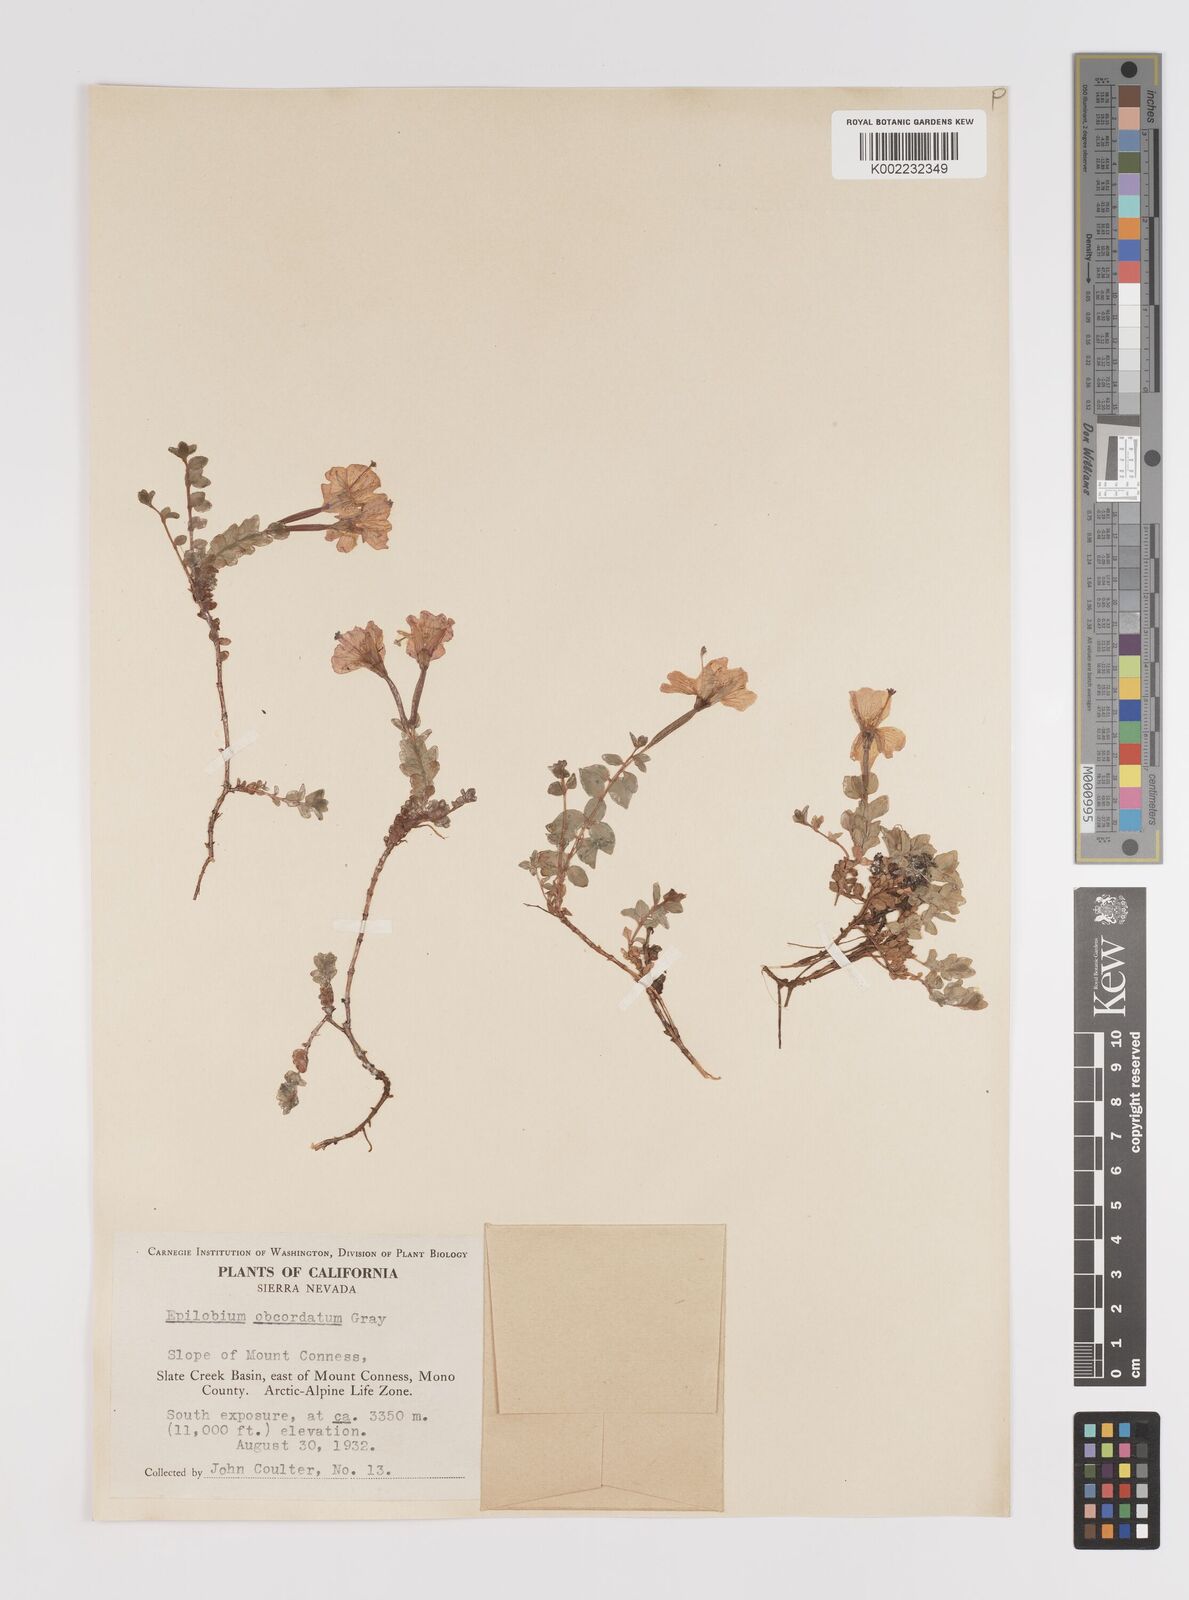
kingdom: Plantae
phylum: Tracheophyta
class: Magnoliopsida
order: Myrtales
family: Onagraceae
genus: Epilobium
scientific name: Epilobium obcordatum
